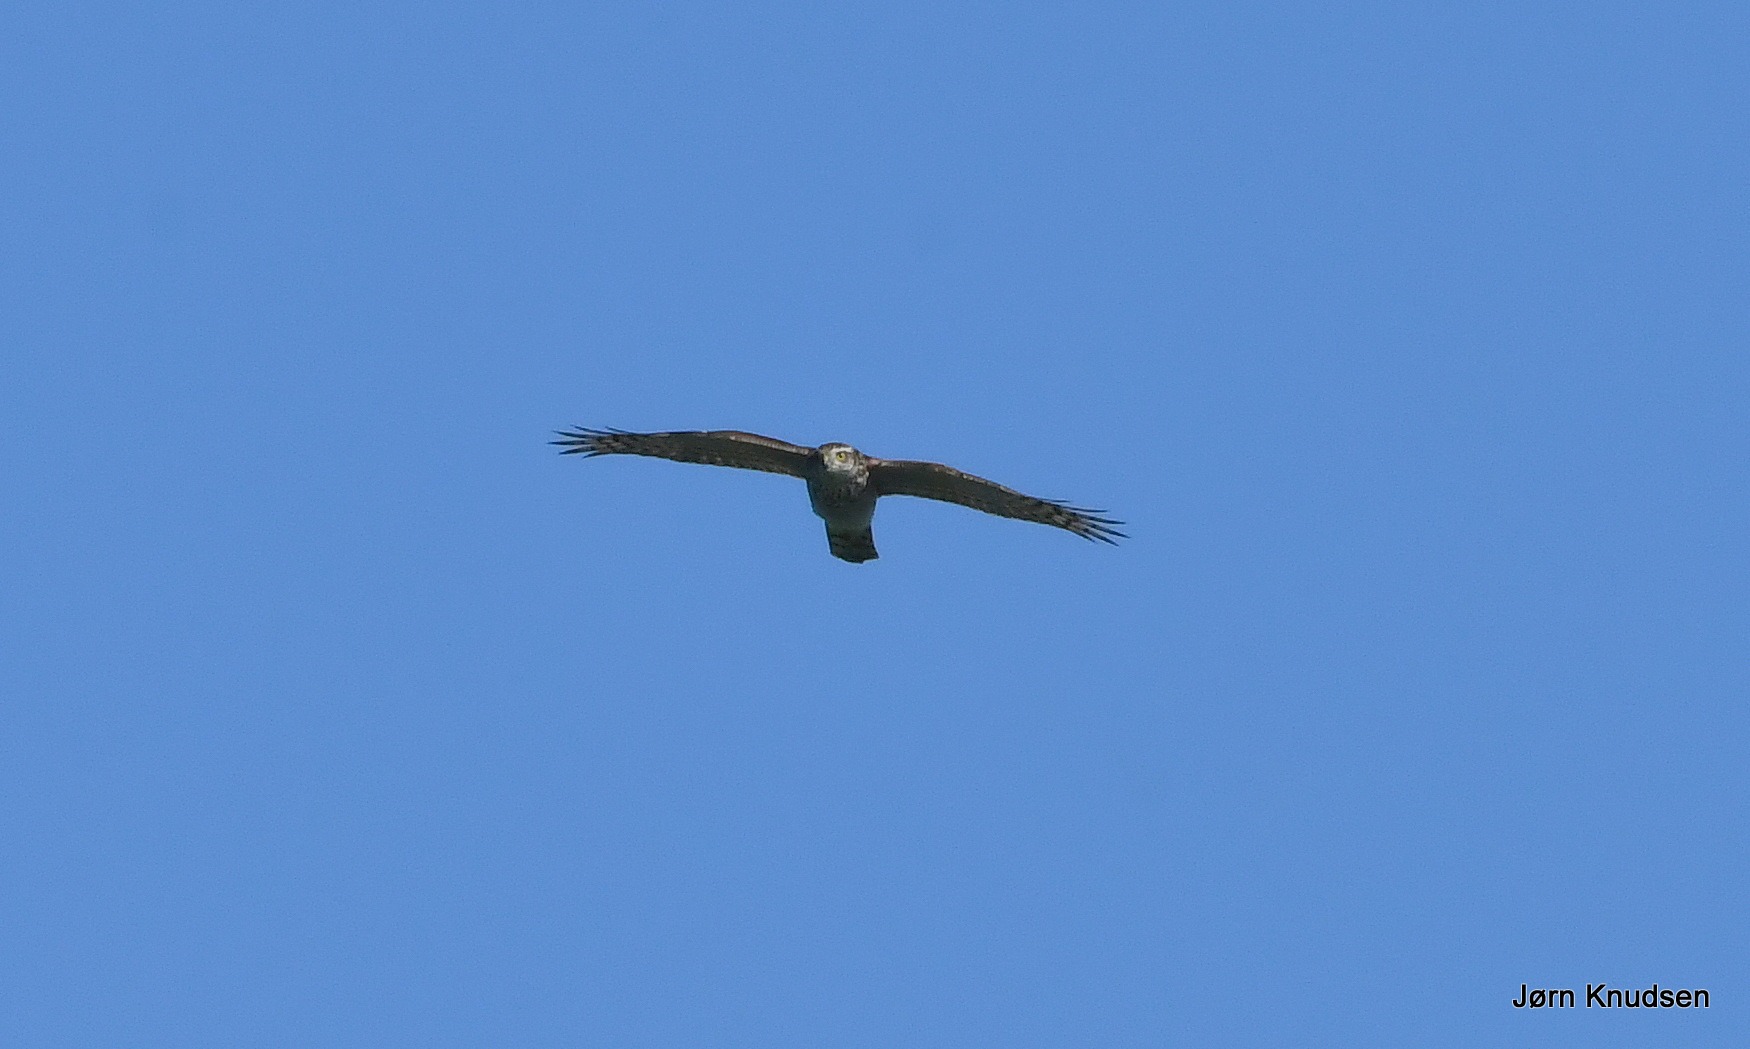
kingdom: Animalia
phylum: Chordata
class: Aves
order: Accipitriformes
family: Accipitridae
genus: Accipiter
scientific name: Accipiter nisus
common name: Spurvehøg
